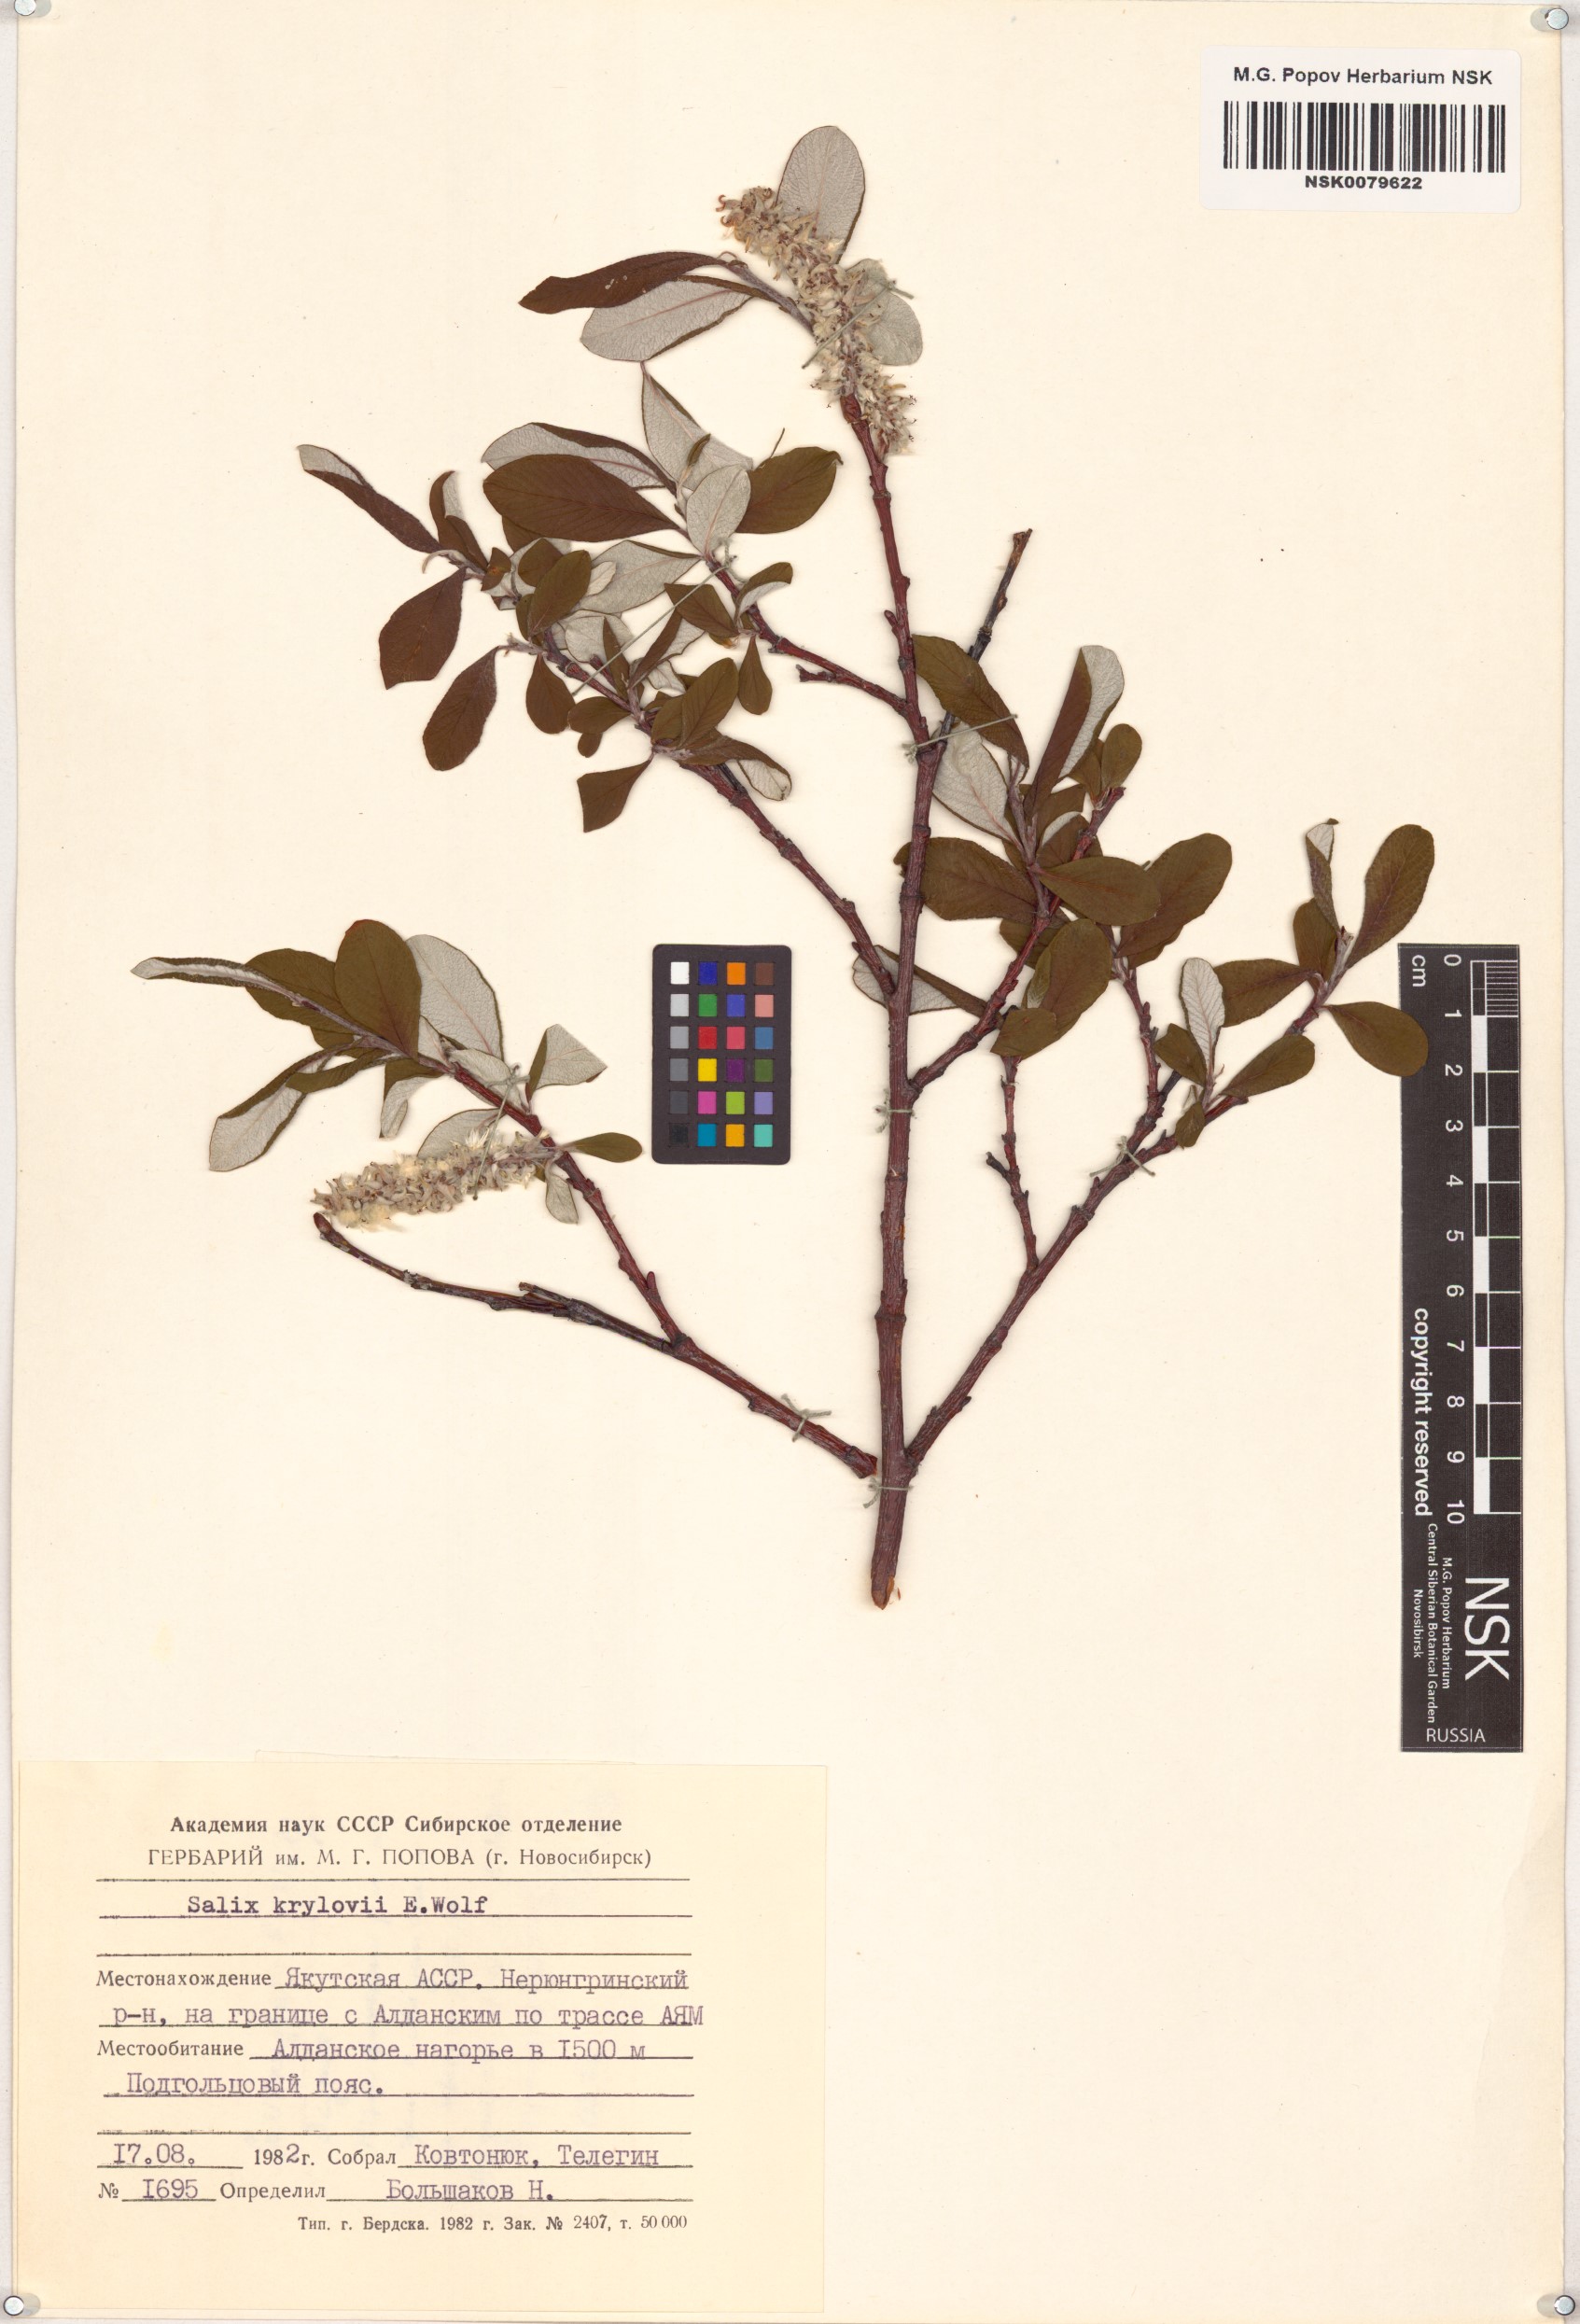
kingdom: Plantae
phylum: Tracheophyta
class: Magnoliopsida
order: Malpighiales
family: Salicaceae
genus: Salix
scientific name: Salix krylovii
